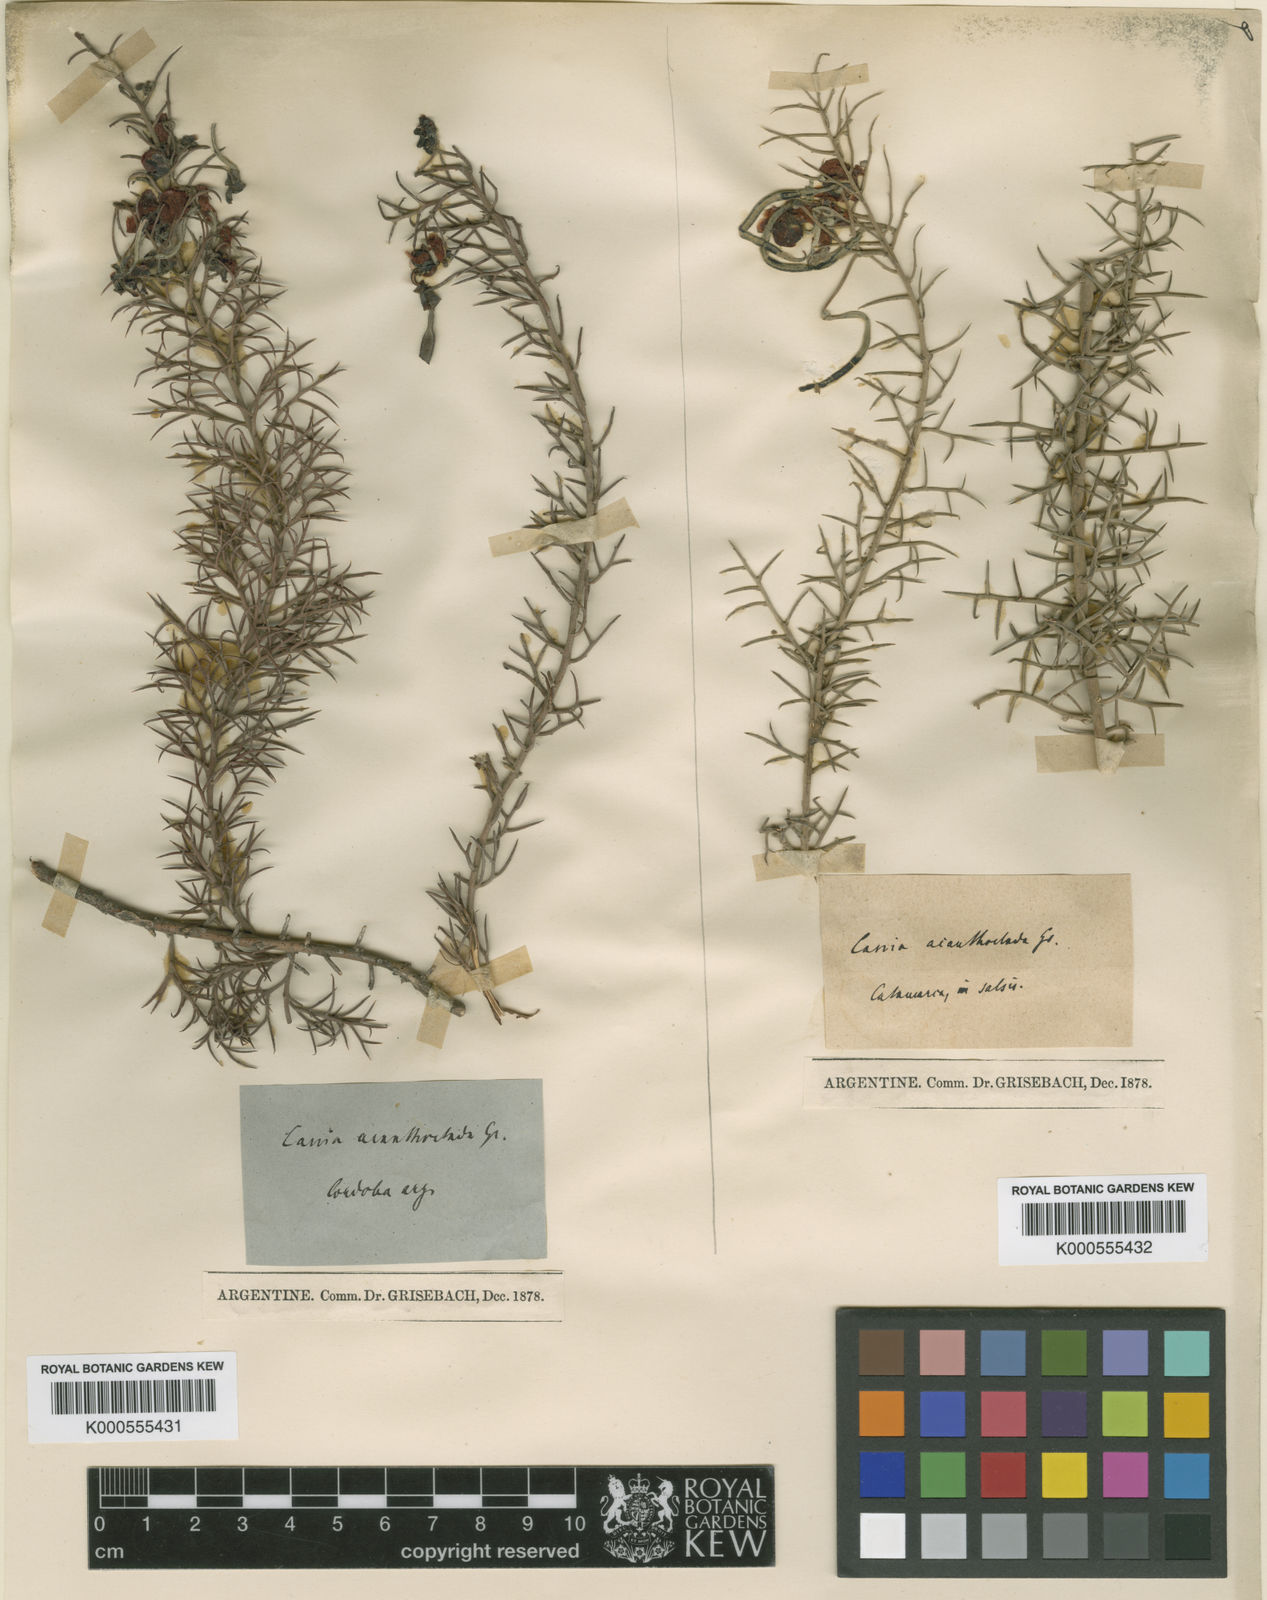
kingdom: Plantae
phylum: Tracheophyta
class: Magnoliopsida
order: Fabales
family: Fabaceae
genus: Senna
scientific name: Senna acanthoclada
